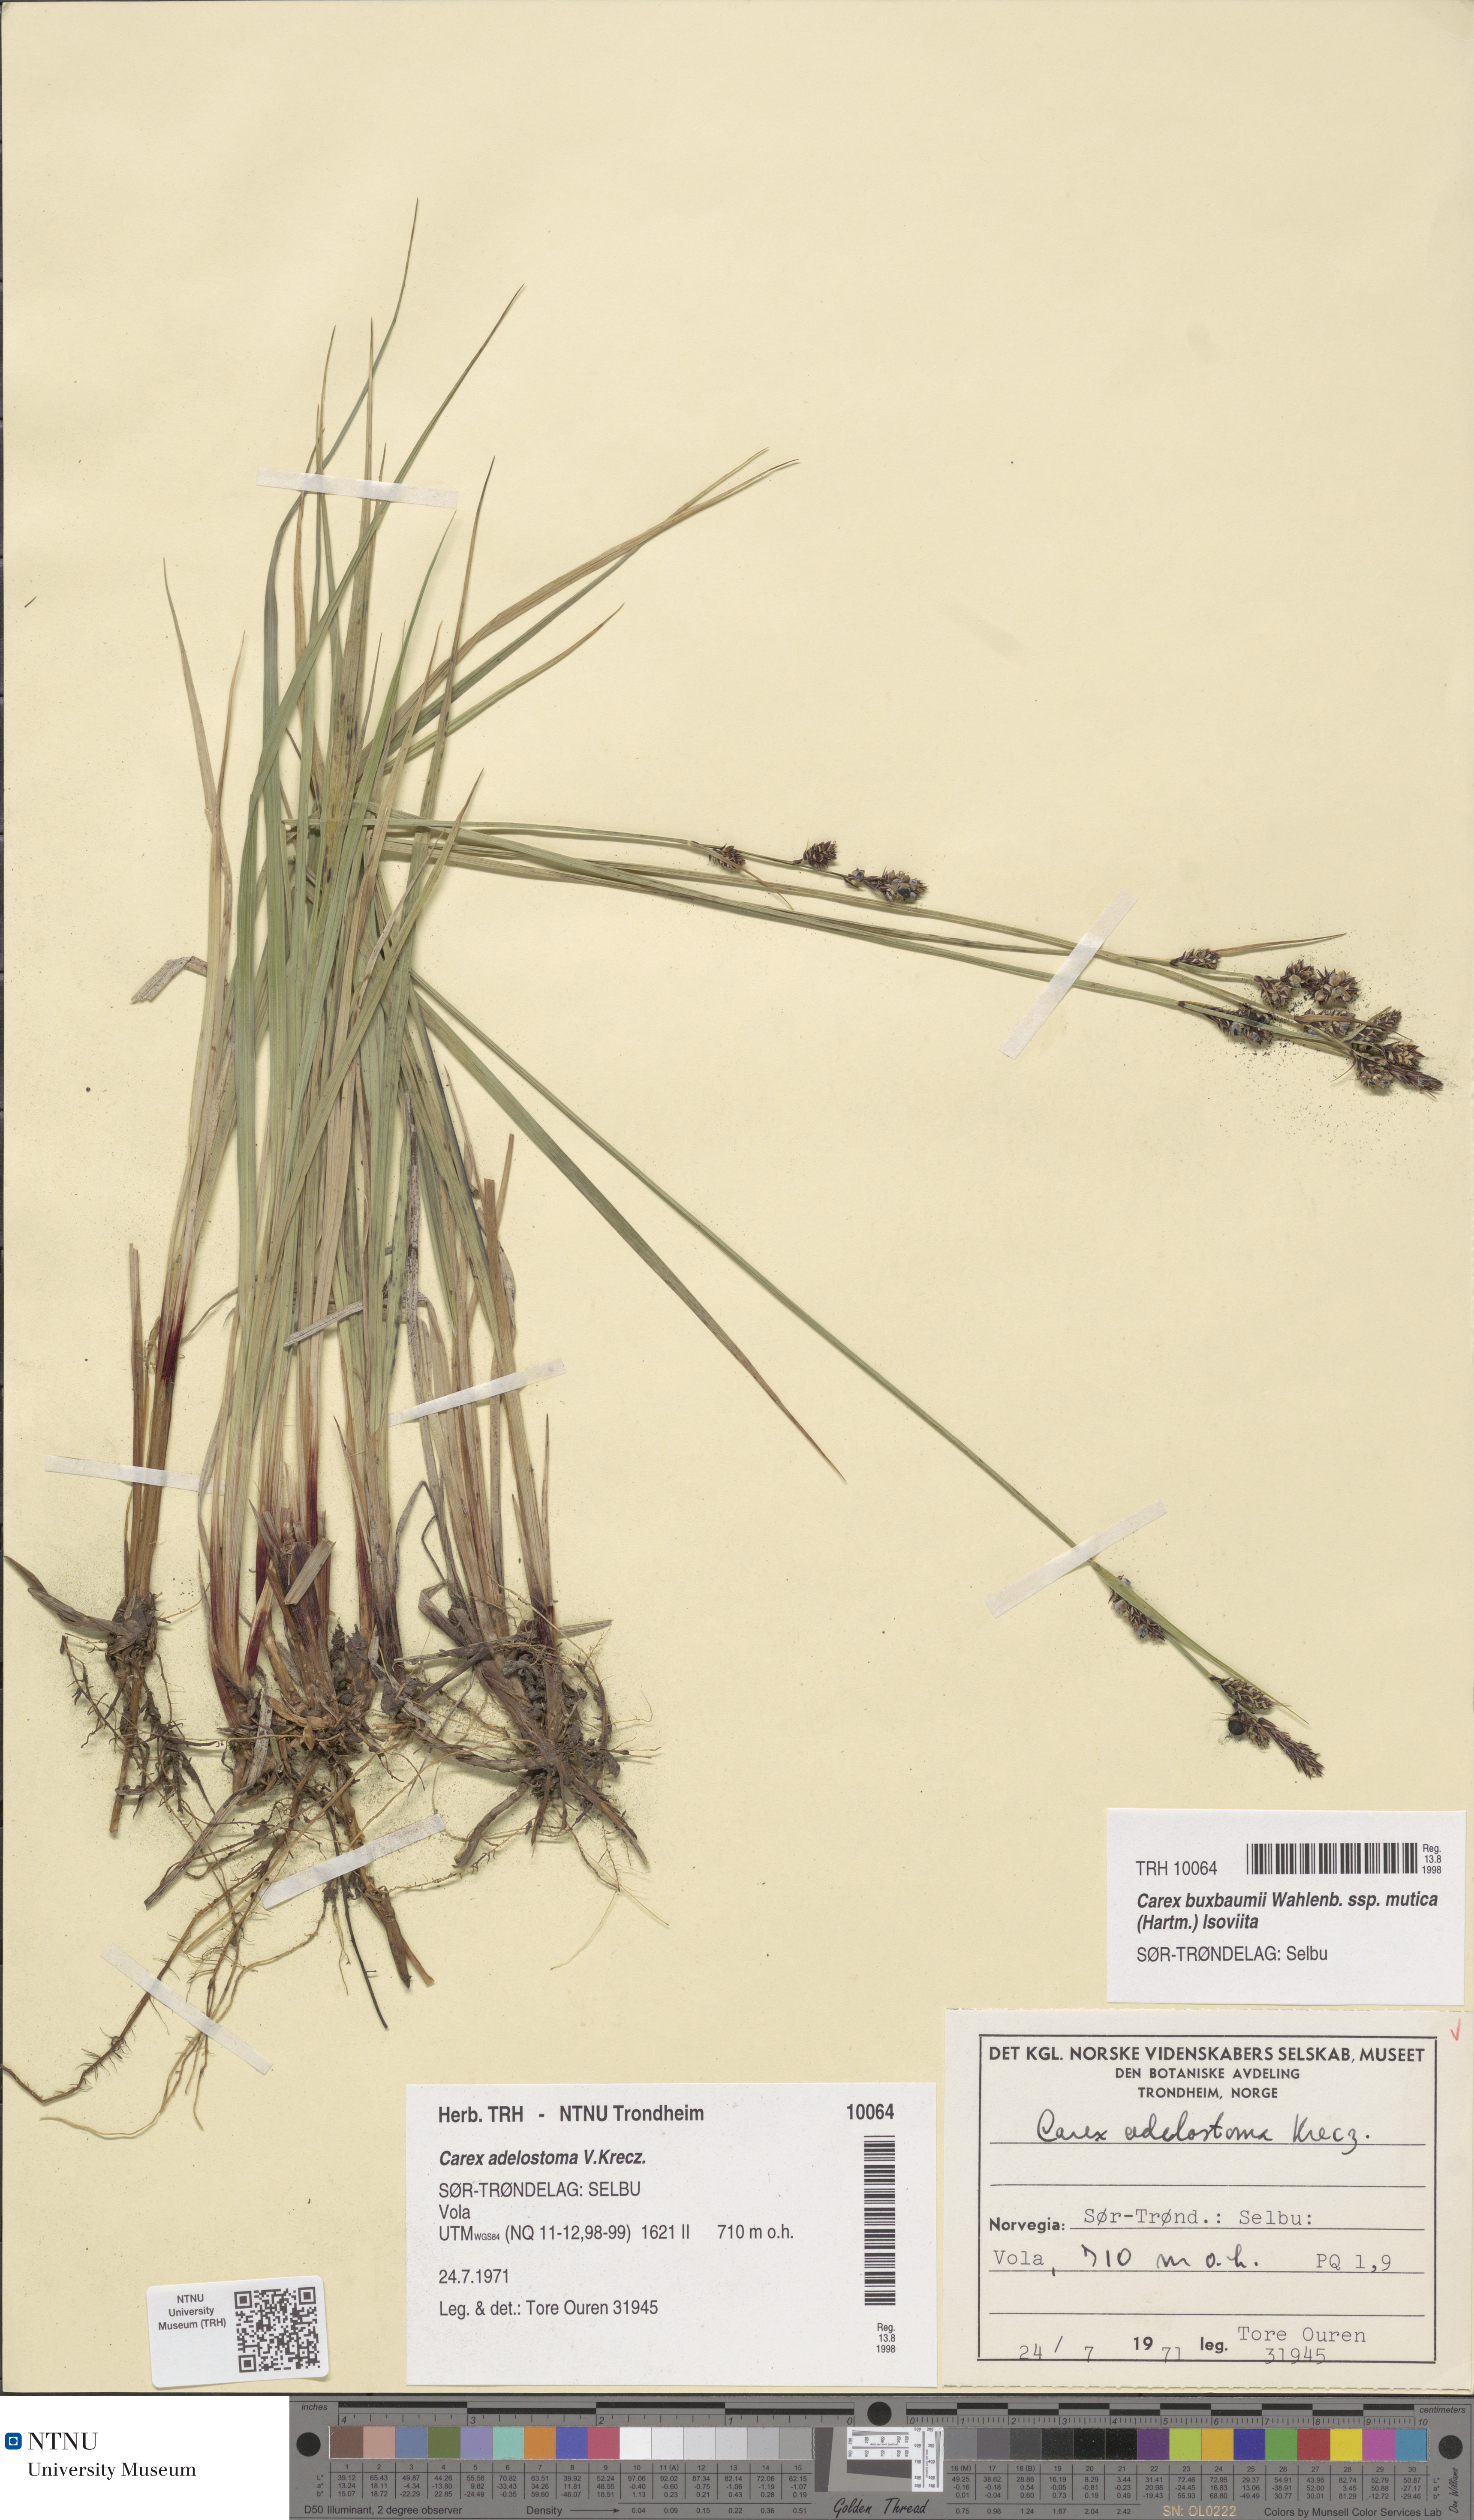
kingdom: Plantae
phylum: Tracheophyta
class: Liliopsida
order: Poales
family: Cyperaceae
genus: Carex
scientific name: Carex adelostoma
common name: Circumpolar sedge
